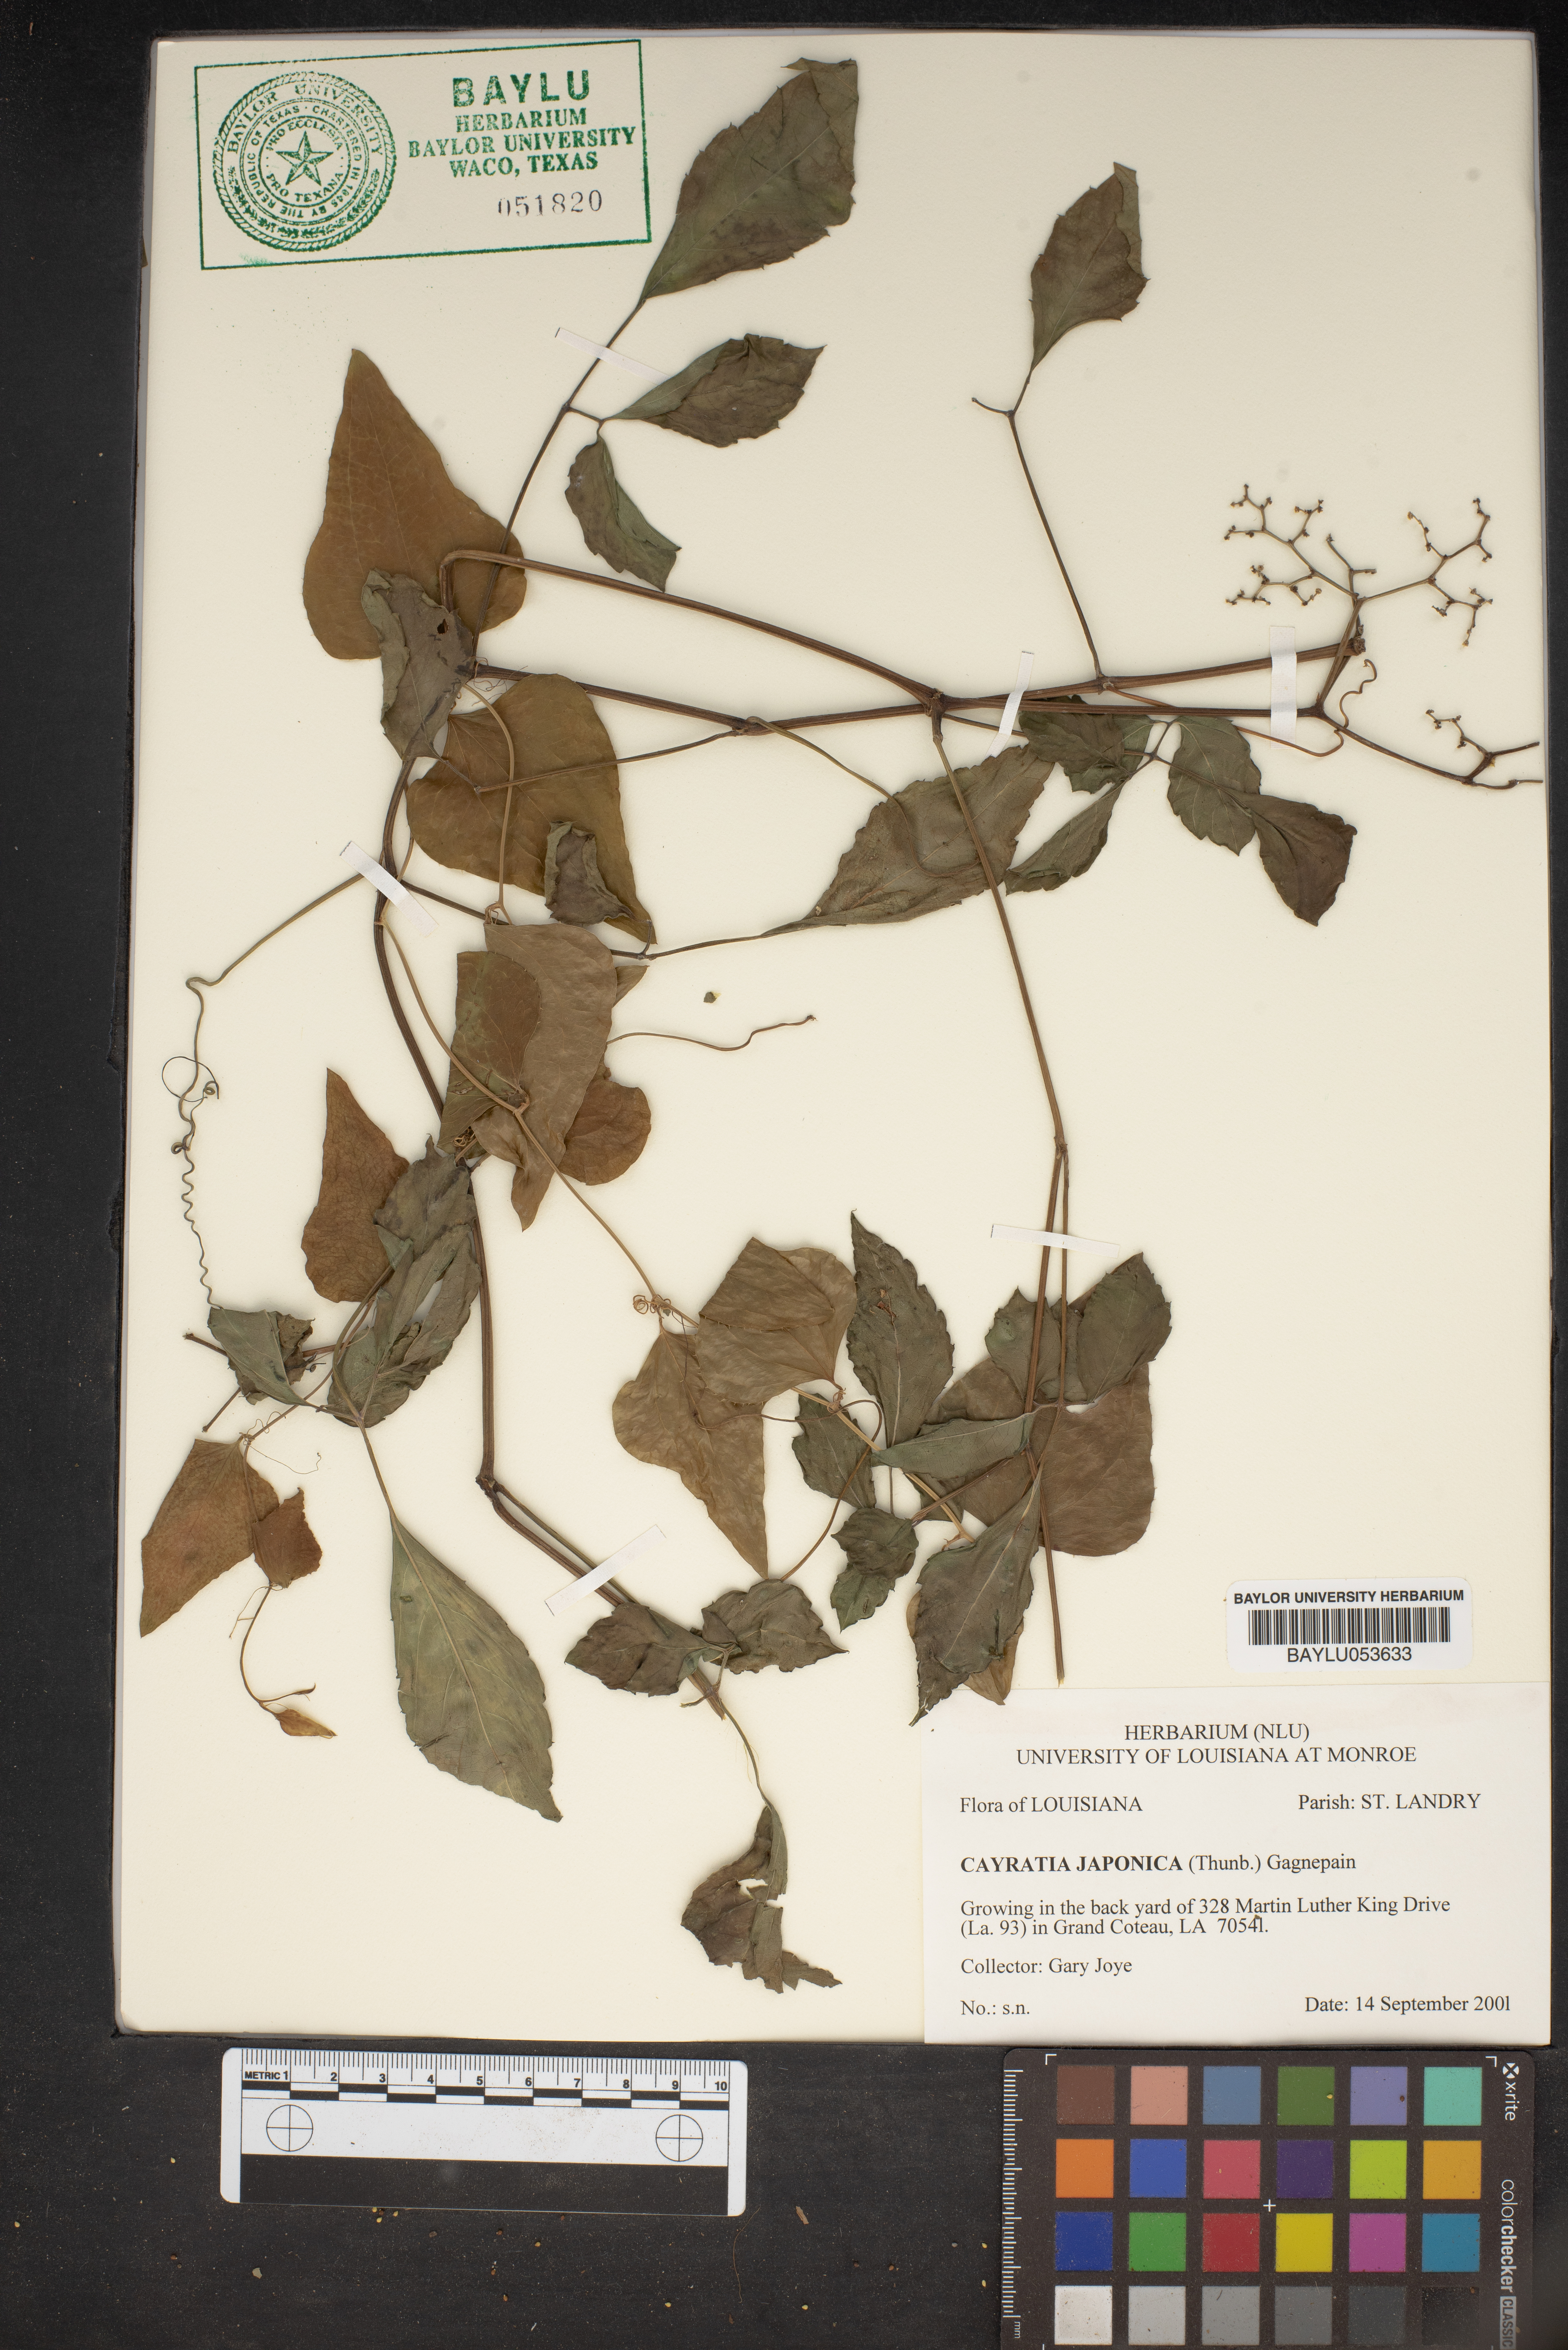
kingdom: Plantae
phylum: Tracheophyta
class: Magnoliopsida
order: Vitales
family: Vitaceae
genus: Causonis
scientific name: Causonis japonica
